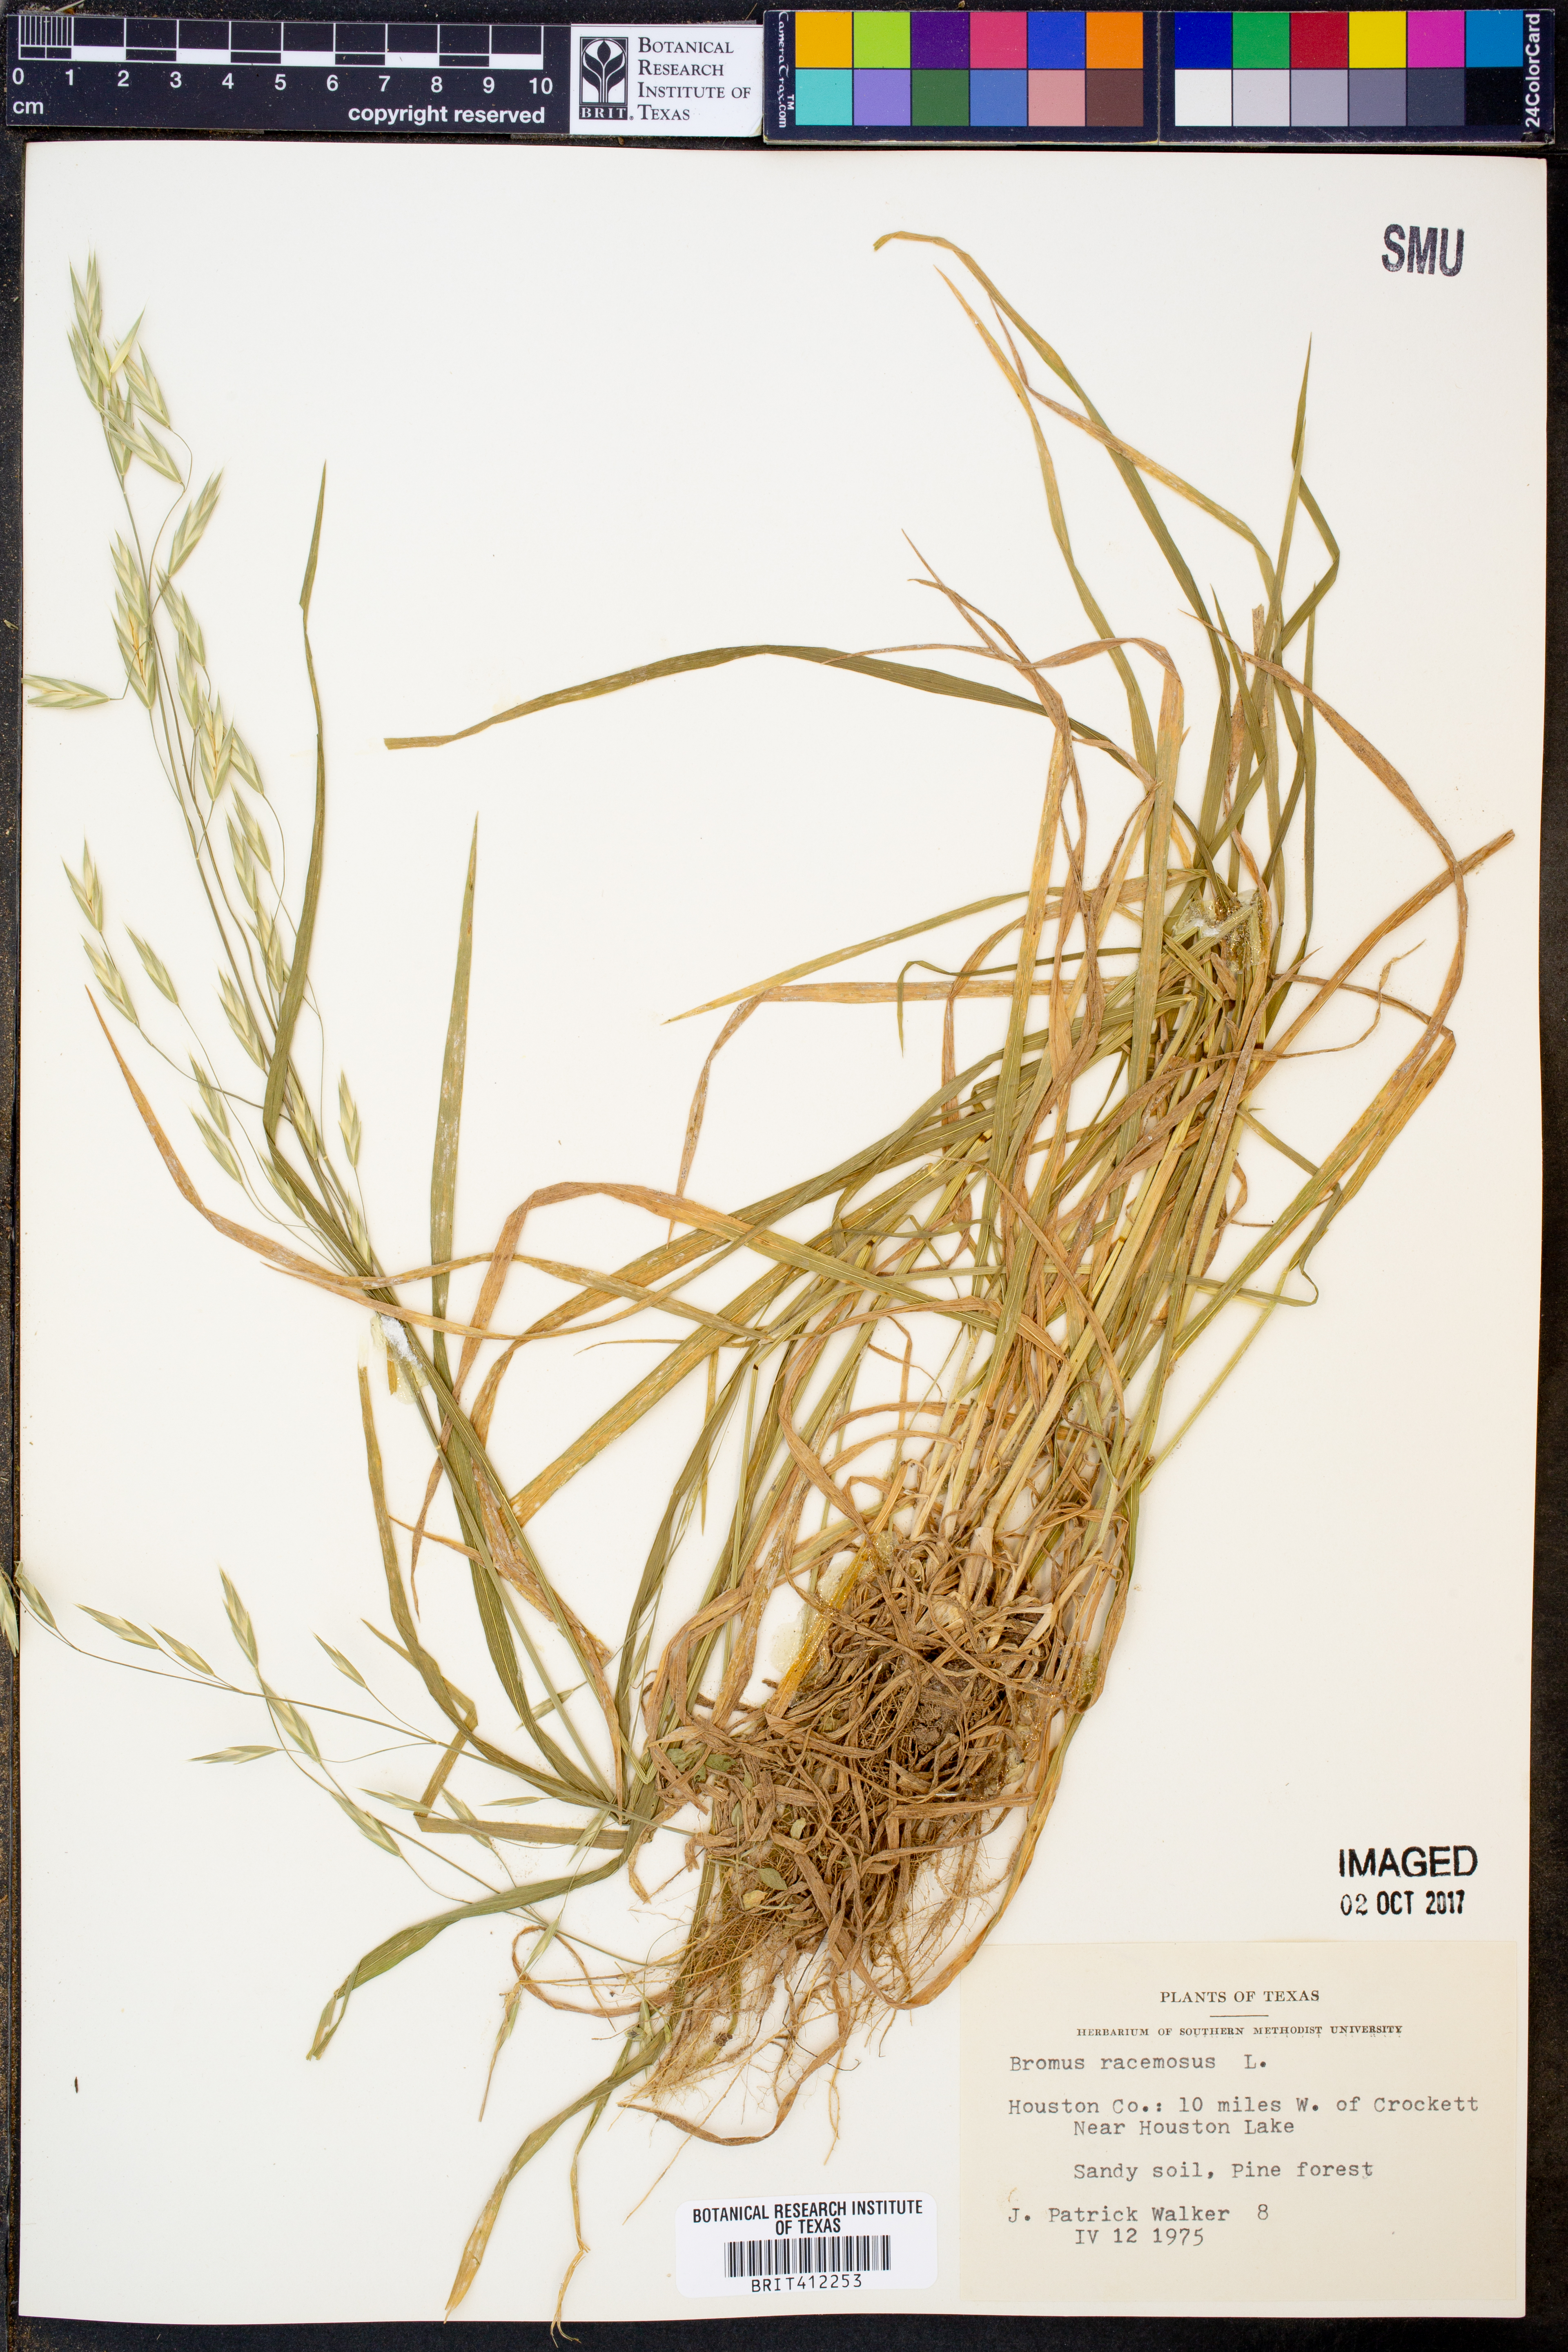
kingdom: Plantae
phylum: Tracheophyta
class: Liliopsida
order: Poales
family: Poaceae
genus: Bromus
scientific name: Bromus racemosus
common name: Bald brome
